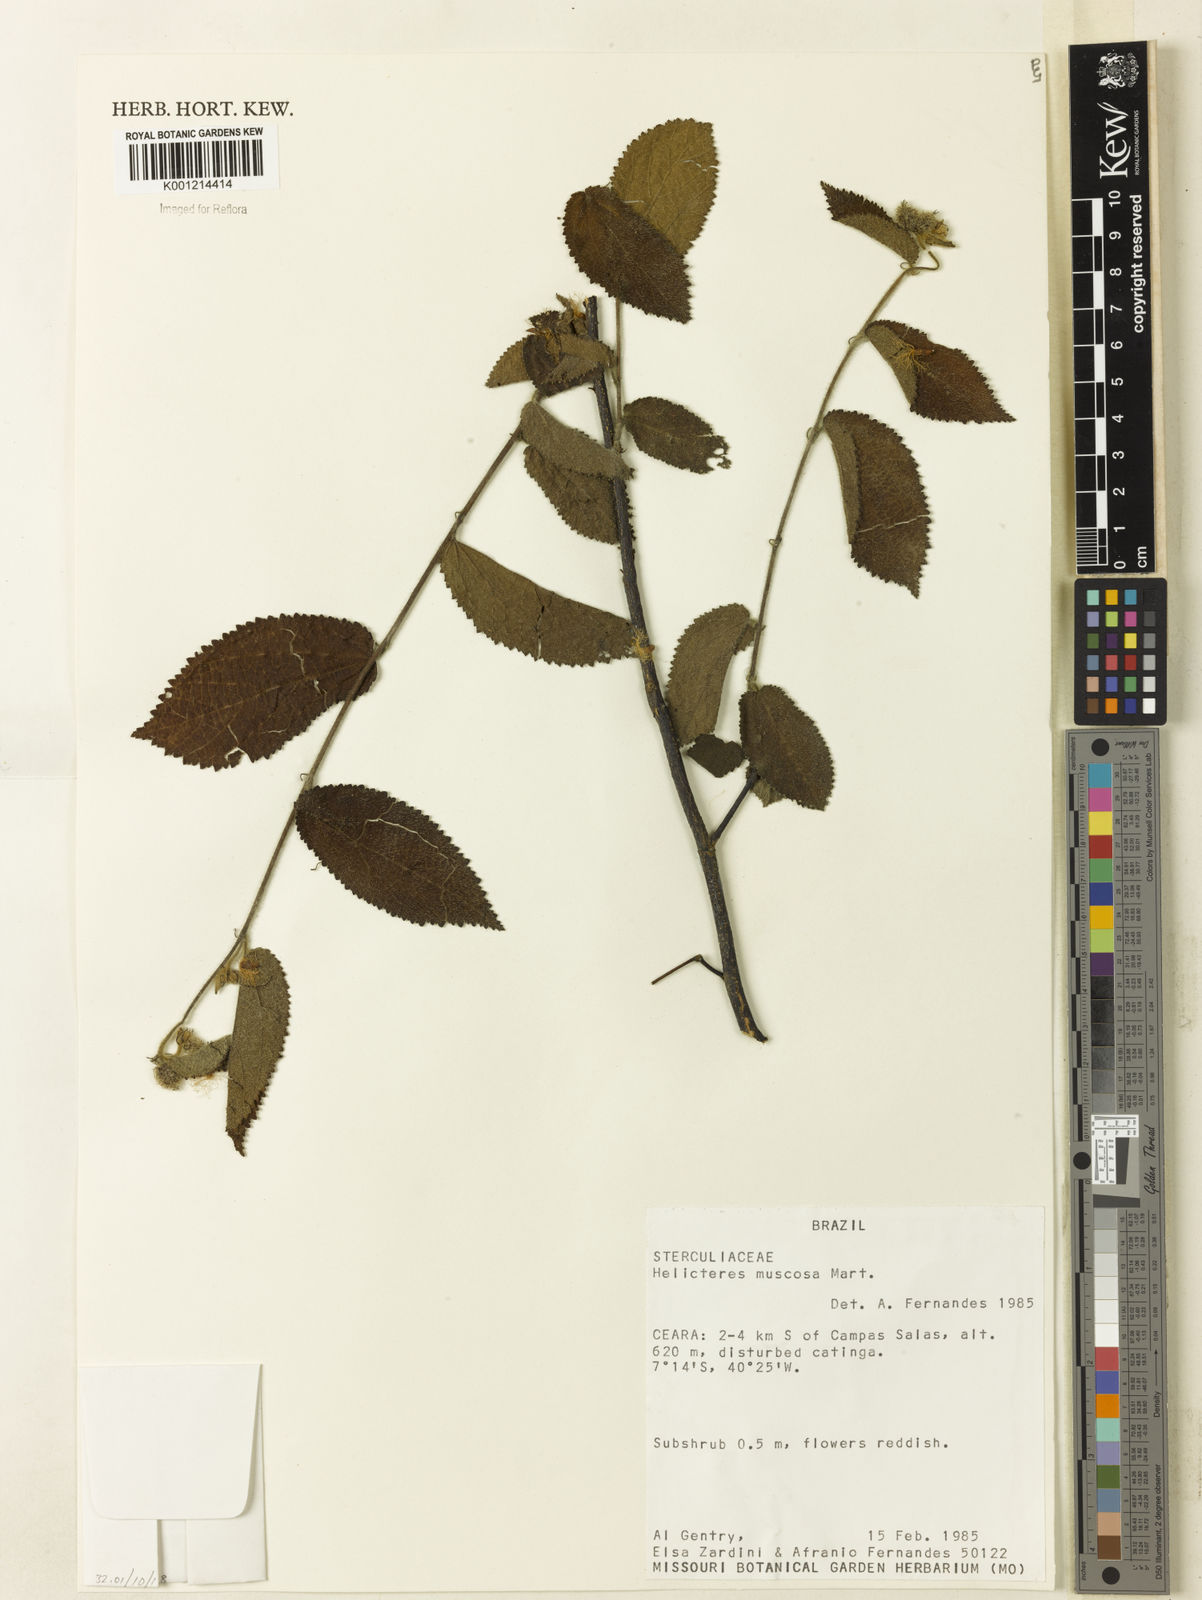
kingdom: Plantae
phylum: Tracheophyta
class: Magnoliopsida
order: Malvales
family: Malvaceae
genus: Helicteres
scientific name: Helicteres muscosa
